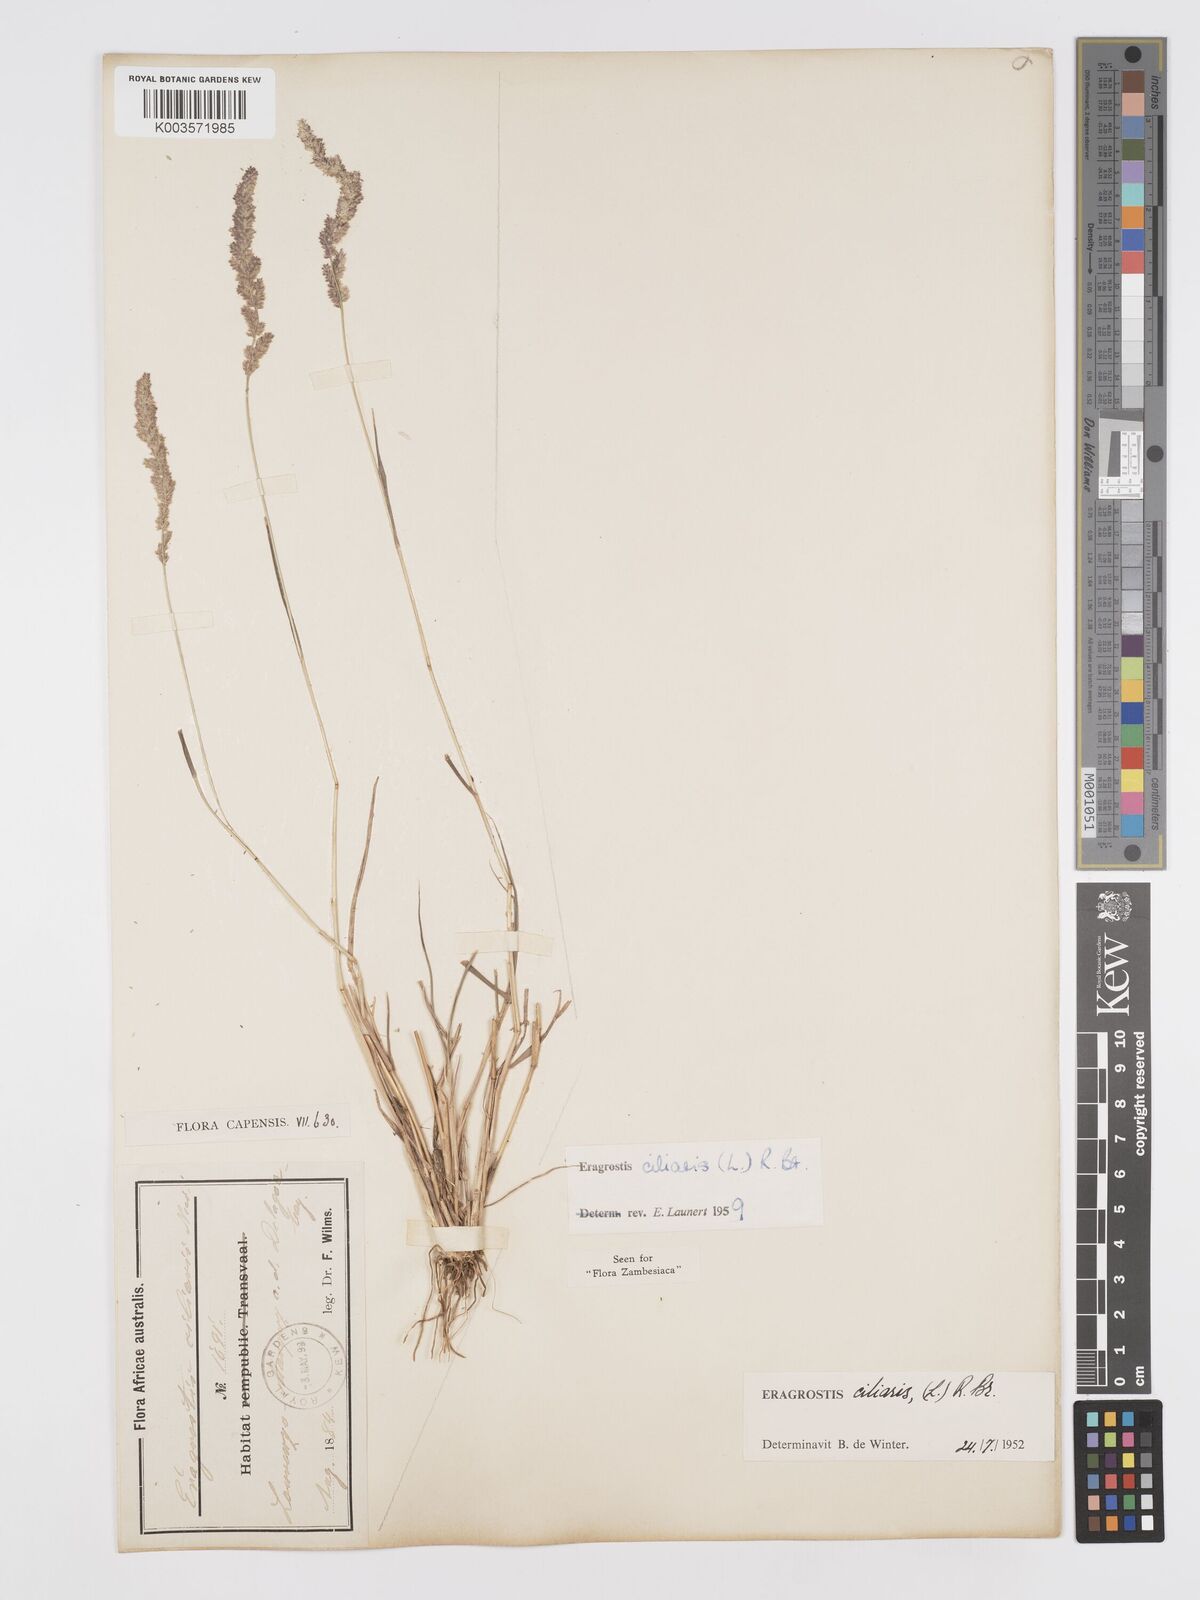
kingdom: Plantae
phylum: Tracheophyta
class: Liliopsida
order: Poales
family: Poaceae
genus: Eragrostis
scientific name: Eragrostis ciliaris
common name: Gophertail lovegrass
